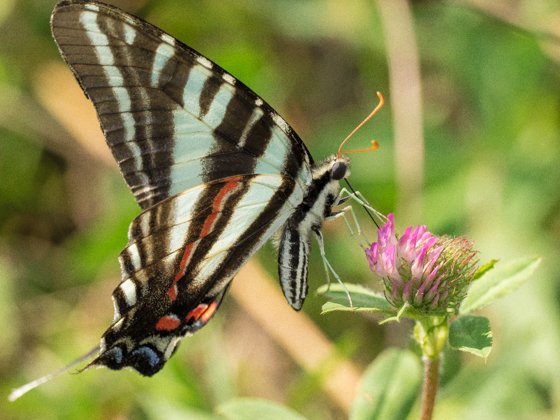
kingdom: Animalia
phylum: Arthropoda
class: Insecta
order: Lepidoptera
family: Papilionidae
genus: Protographium
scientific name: Protographium marcellus
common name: Zebra Swallowtail
